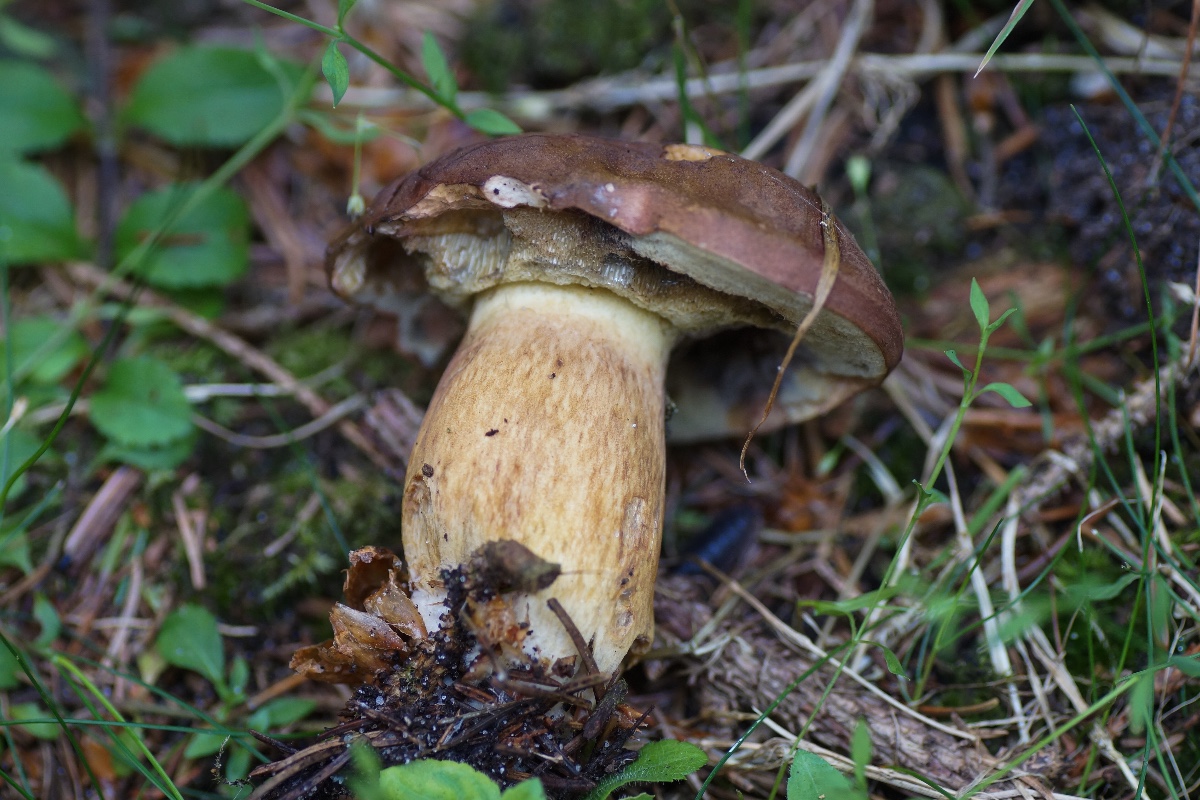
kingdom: Fungi
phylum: Basidiomycota
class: Agaricomycetes
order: Boletales
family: Boletaceae
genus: Imleria
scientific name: Imleria badia
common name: brunstokket rørhat
